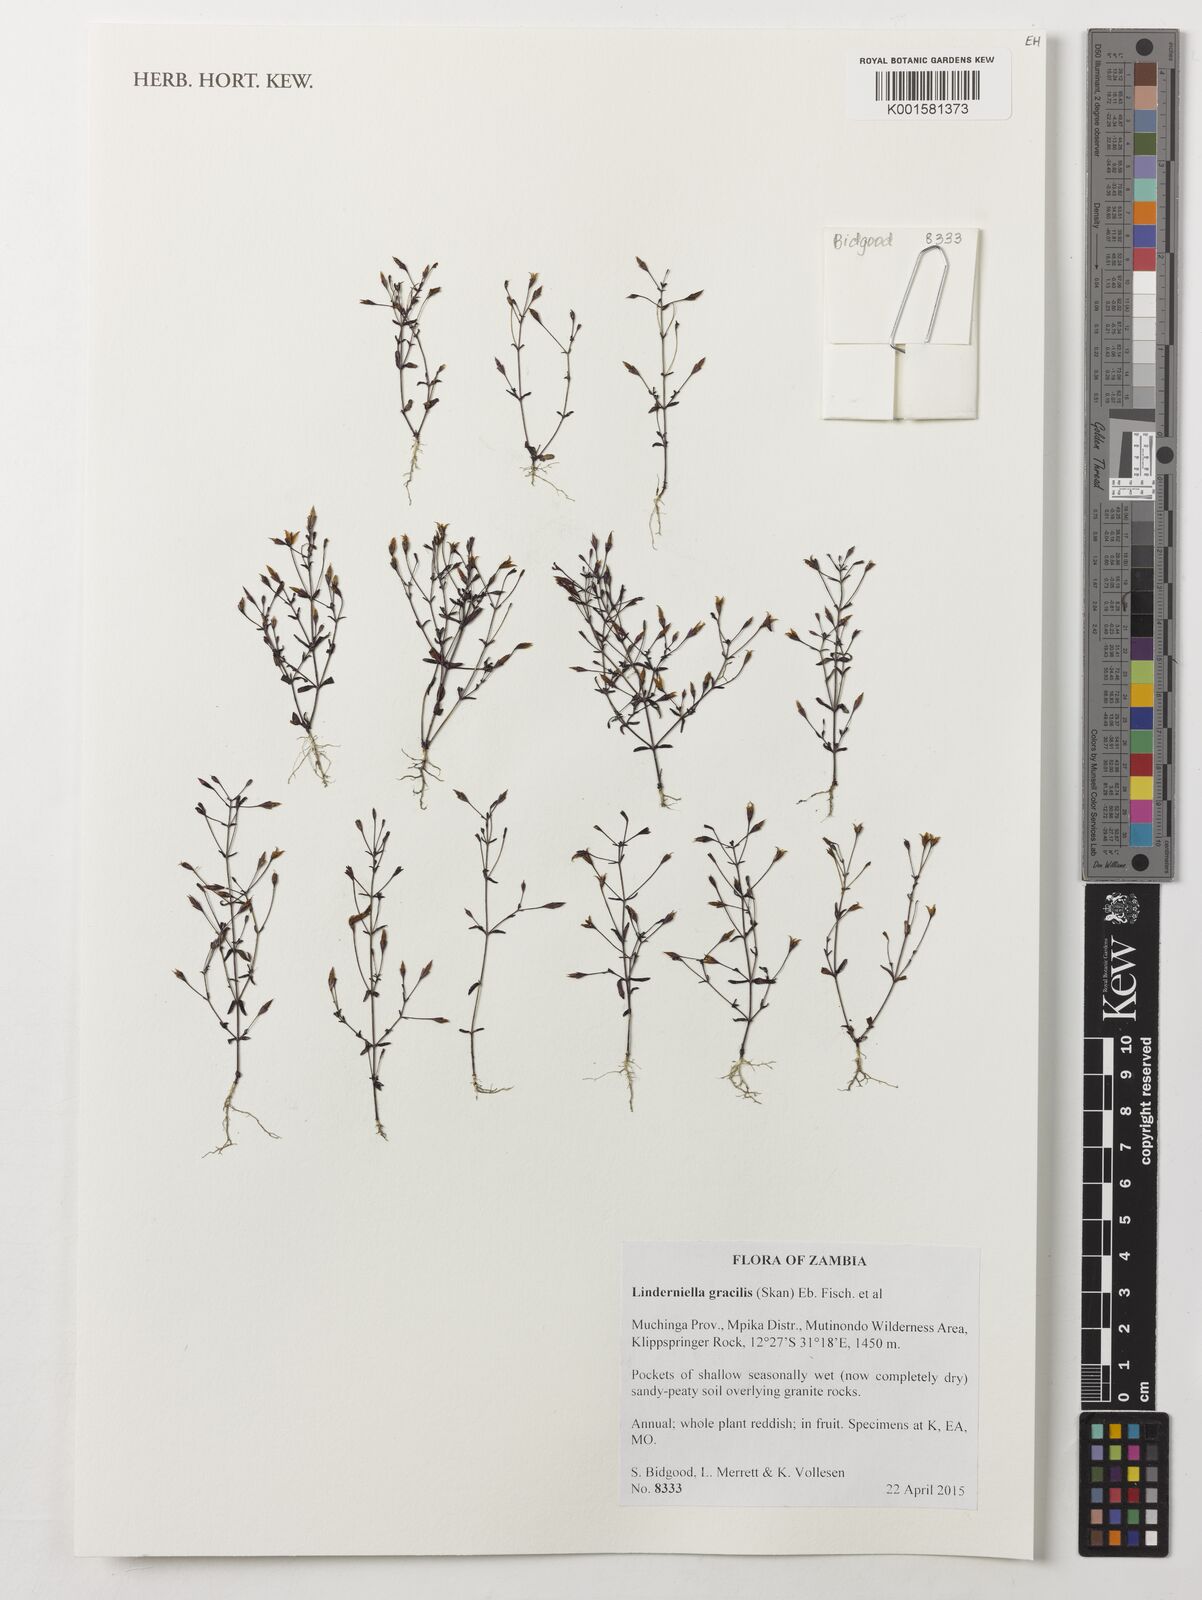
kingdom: Plantae
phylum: Tracheophyta
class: Magnoliopsida
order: Lamiales
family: Linderniaceae
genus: Linderniella
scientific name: Linderniella gracilis
